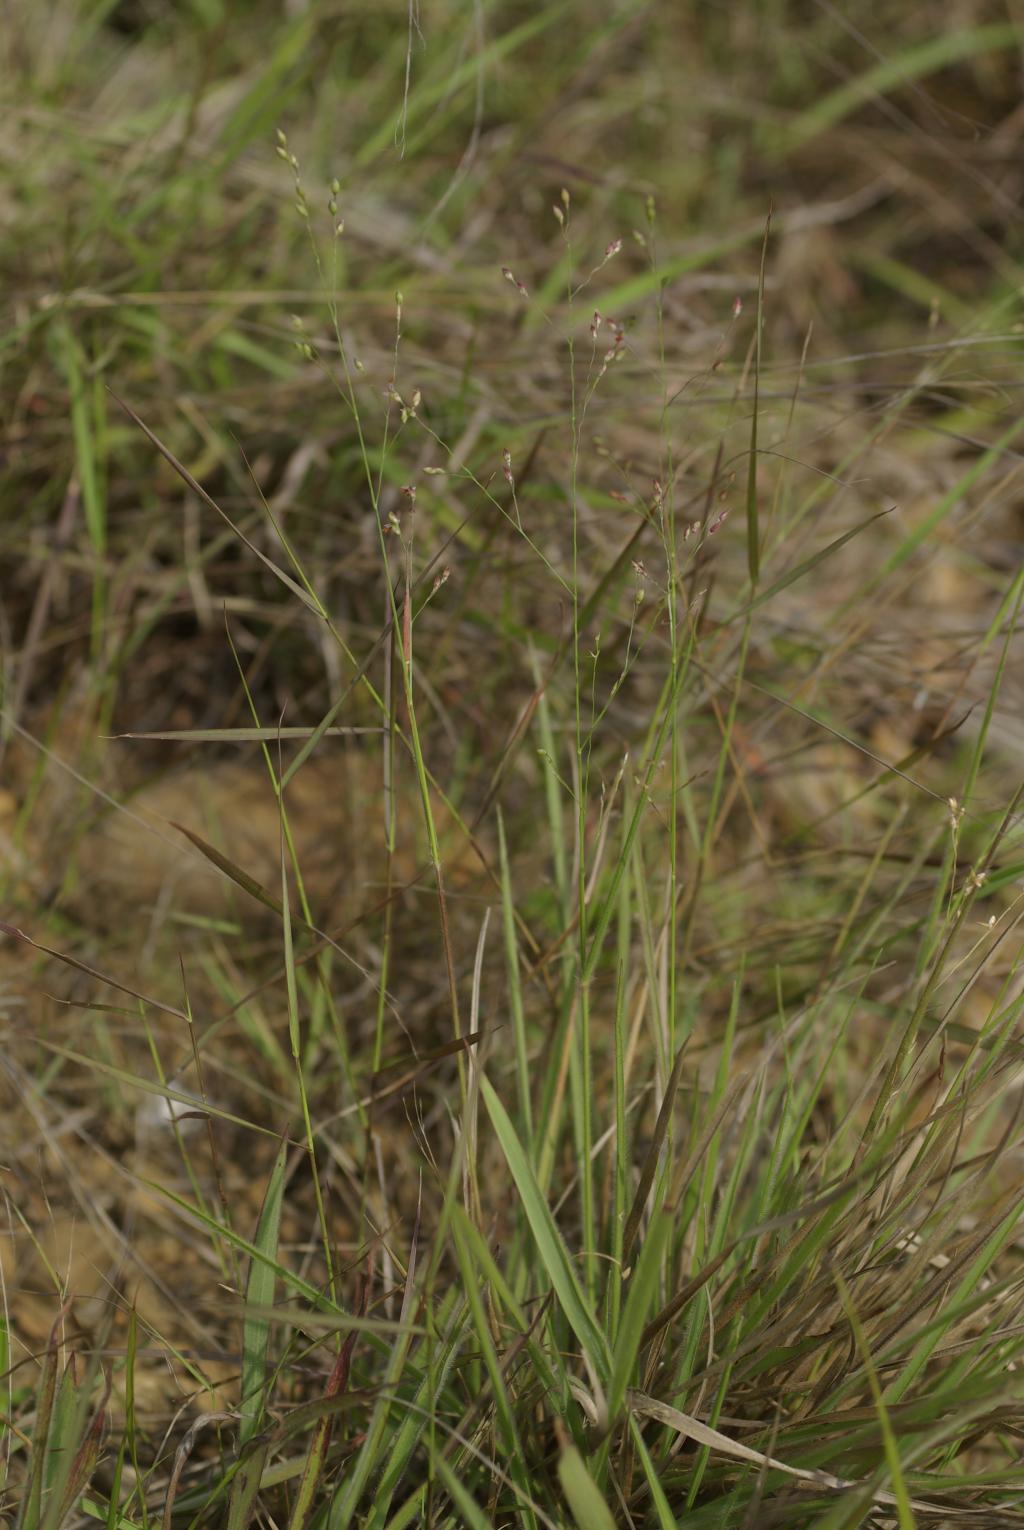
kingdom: Plantae
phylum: Tracheophyta
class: Liliopsida
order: Poales
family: Poaceae
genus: Panicum
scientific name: Panicum curviflorum
